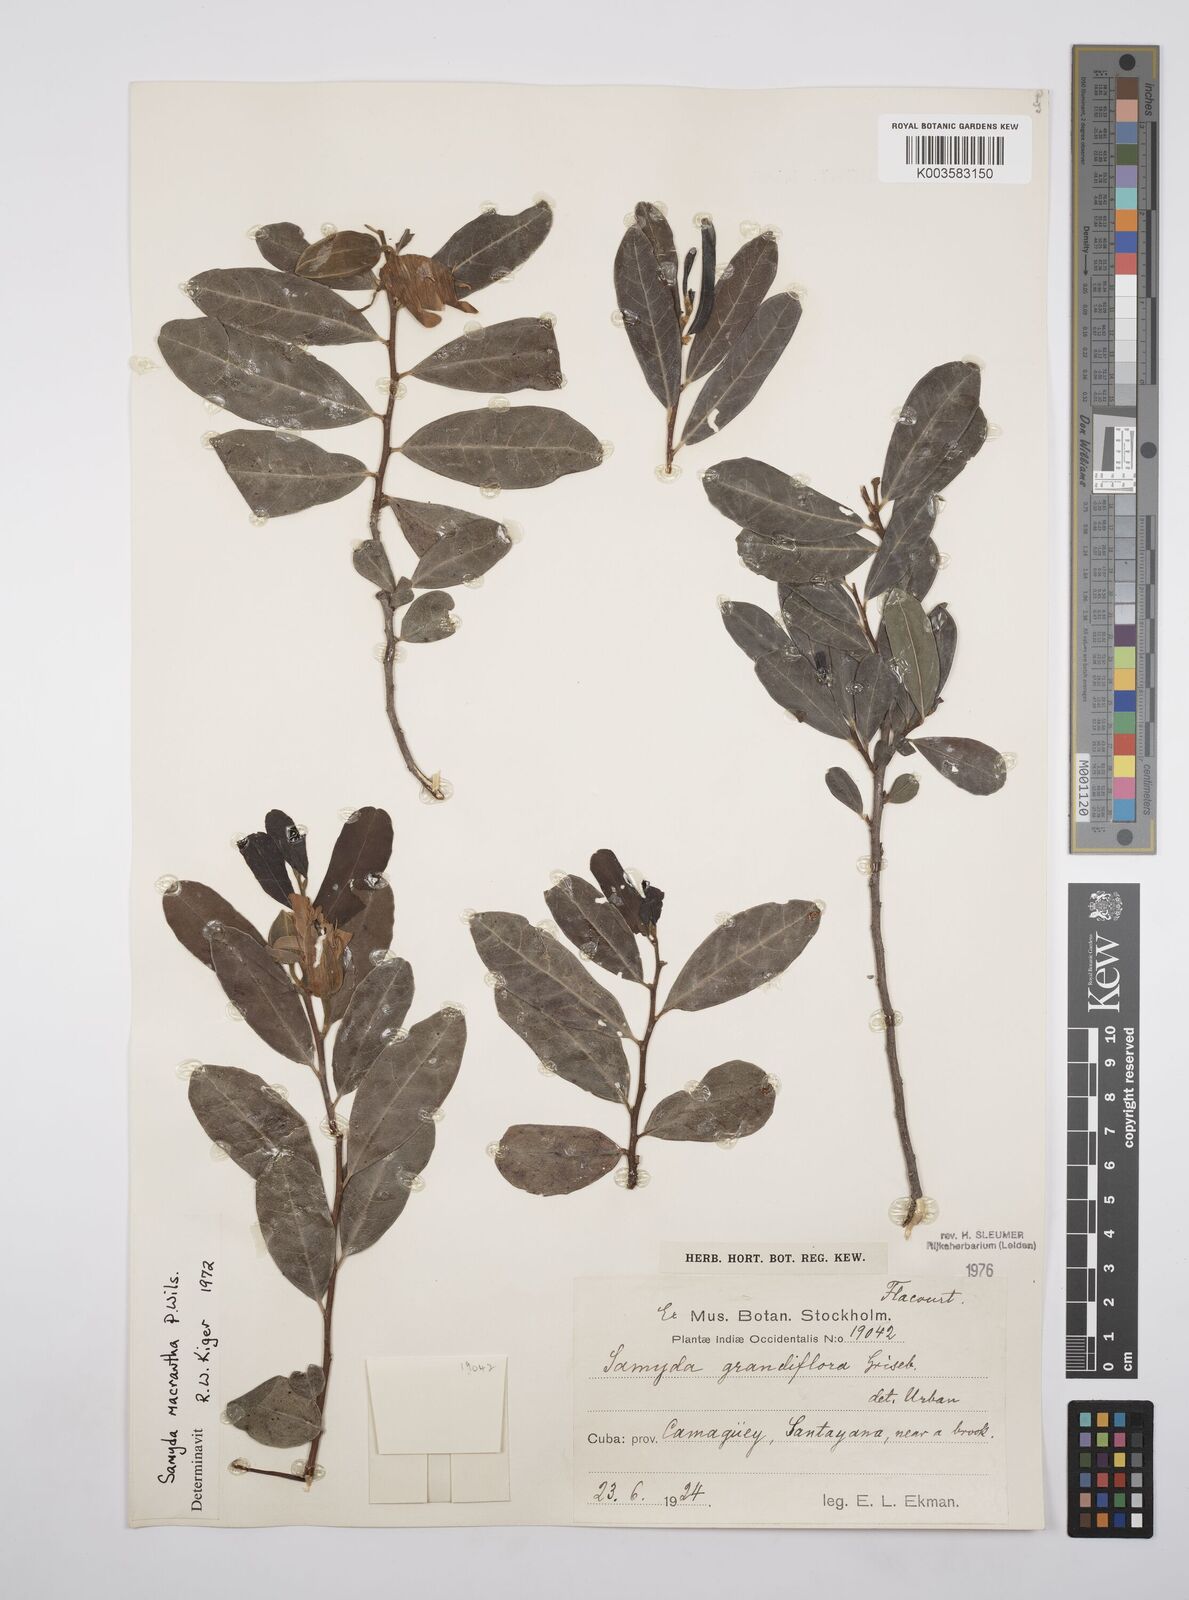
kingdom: Plantae
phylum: Tracheophyta
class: Magnoliopsida
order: Malpighiales
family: Salicaceae
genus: Casearia
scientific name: Casearia dolichanthera
